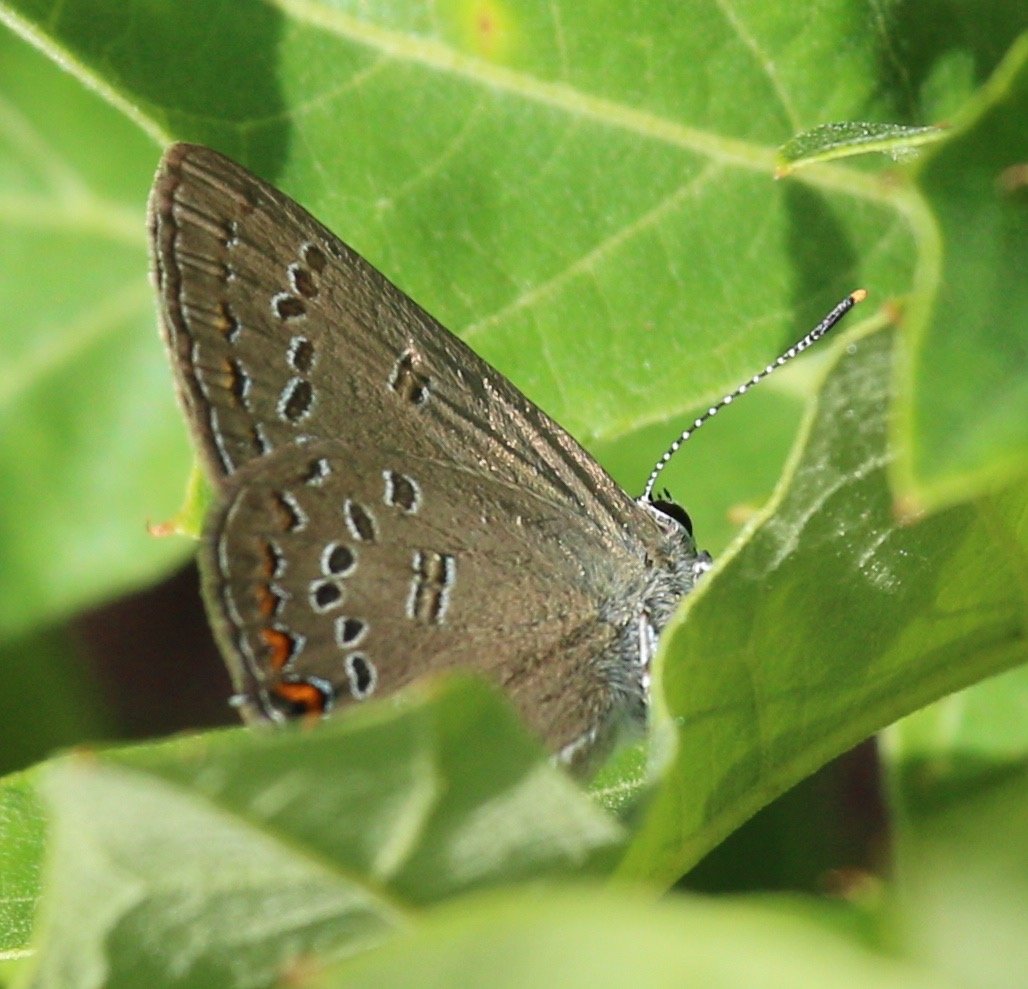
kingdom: Animalia
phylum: Arthropoda
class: Insecta
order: Lepidoptera
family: Lycaenidae
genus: Satyrium
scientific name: Satyrium edwardsii
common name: Edwards' Hairstreak
